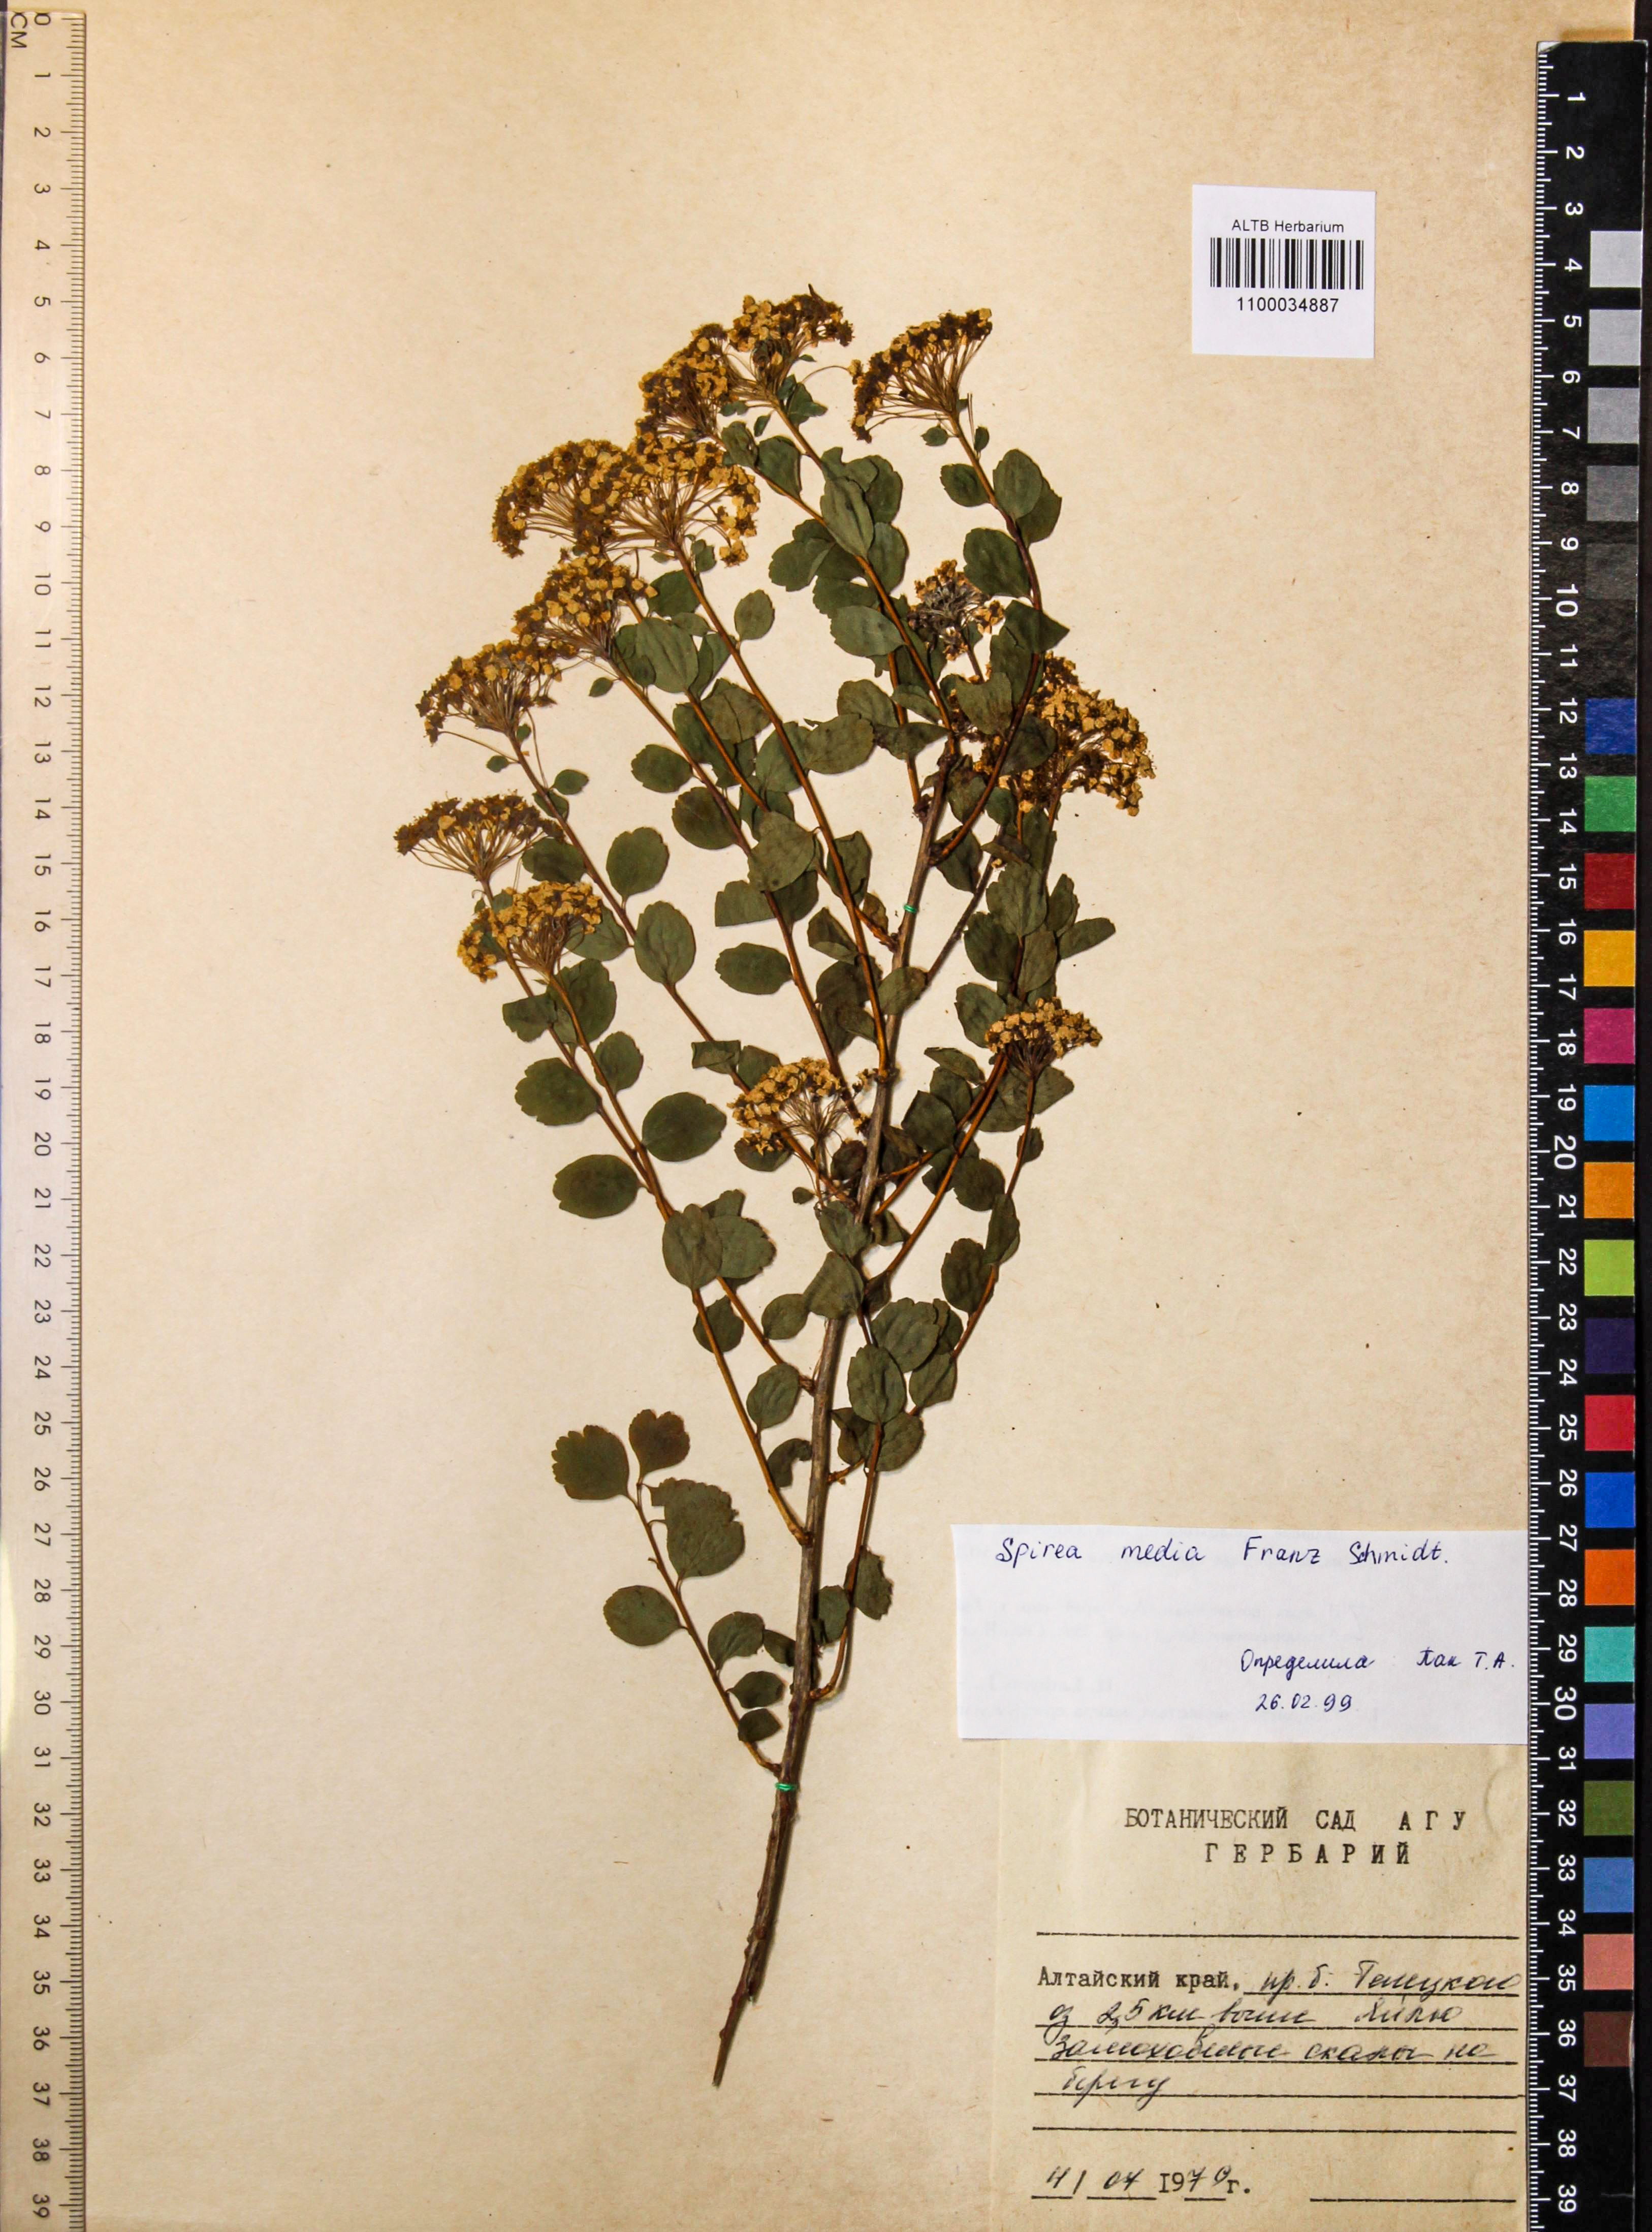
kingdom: Plantae
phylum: Tracheophyta
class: Magnoliopsida
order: Rosales
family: Rosaceae
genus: Spiraea
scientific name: Spiraea media
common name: Russian spiraea
